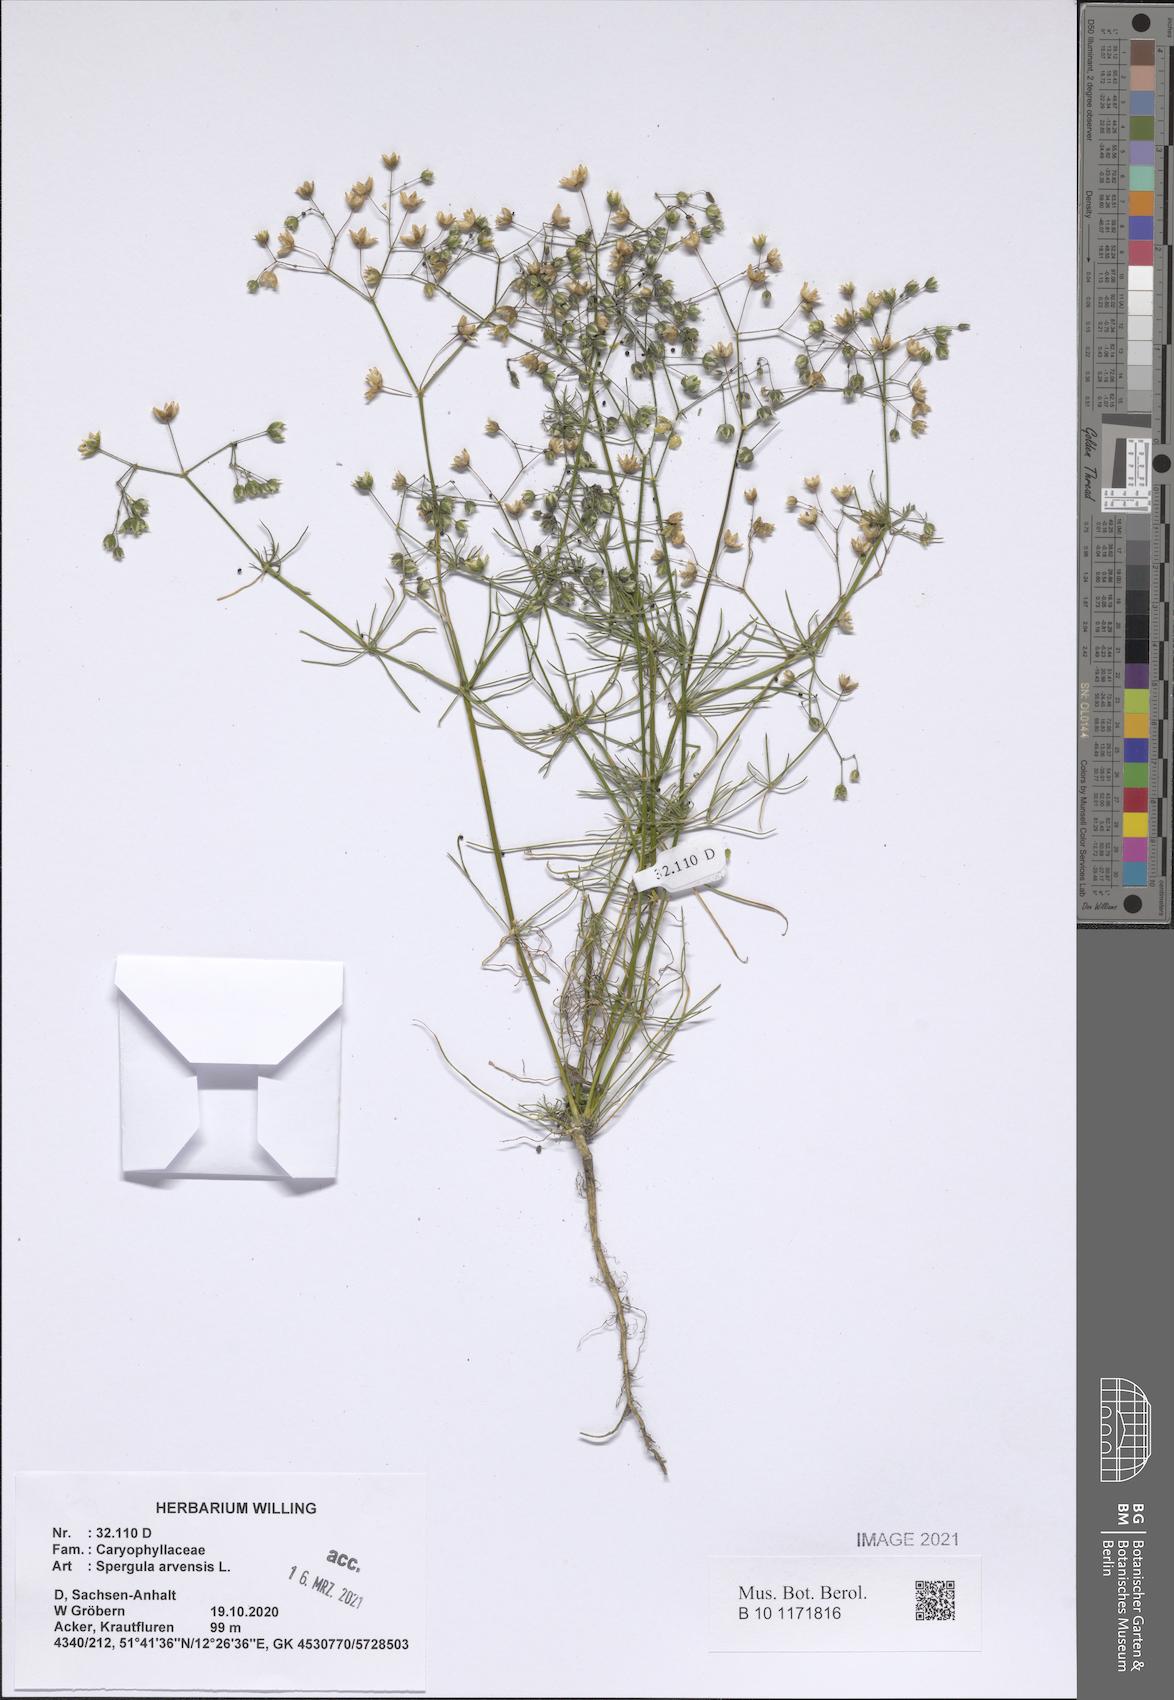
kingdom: Plantae
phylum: Tracheophyta
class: Magnoliopsida
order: Caryophyllales
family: Caryophyllaceae
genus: Spergula
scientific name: Spergula arvensis
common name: Corn spurrey
